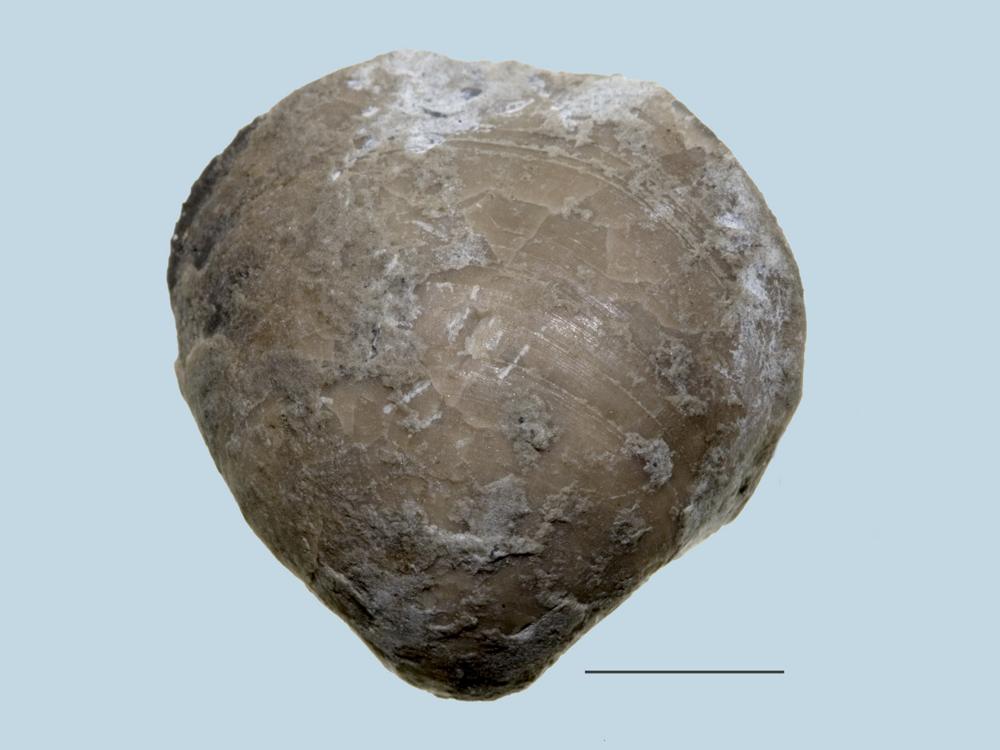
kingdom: Animalia
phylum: Brachiopoda
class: Rhynchonellata
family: Porambonitidae
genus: Porambonites
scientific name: Porambonites
